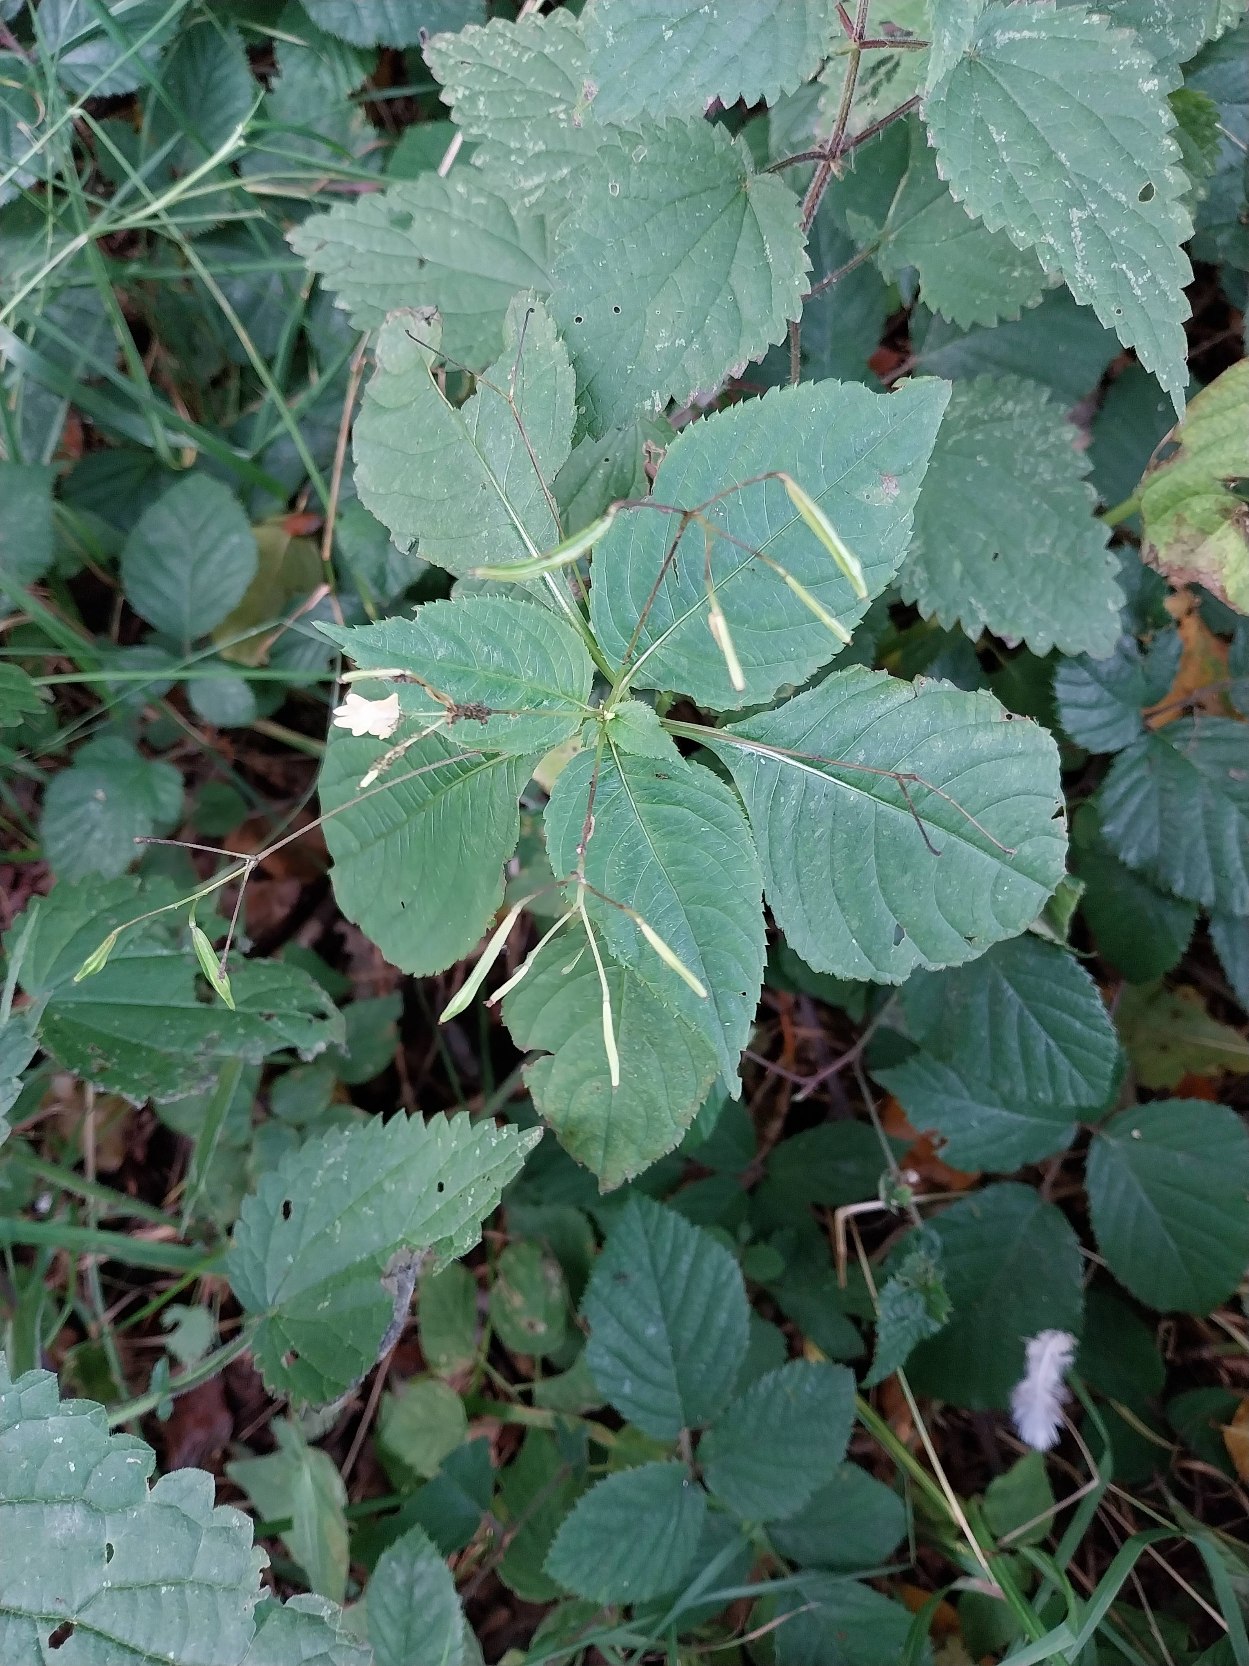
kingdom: Plantae
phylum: Tracheophyta
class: Magnoliopsida
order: Ericales
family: Balsaminaceae
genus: Impatiens
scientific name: Impatiens parviflora
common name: Småblomstret balsamin
